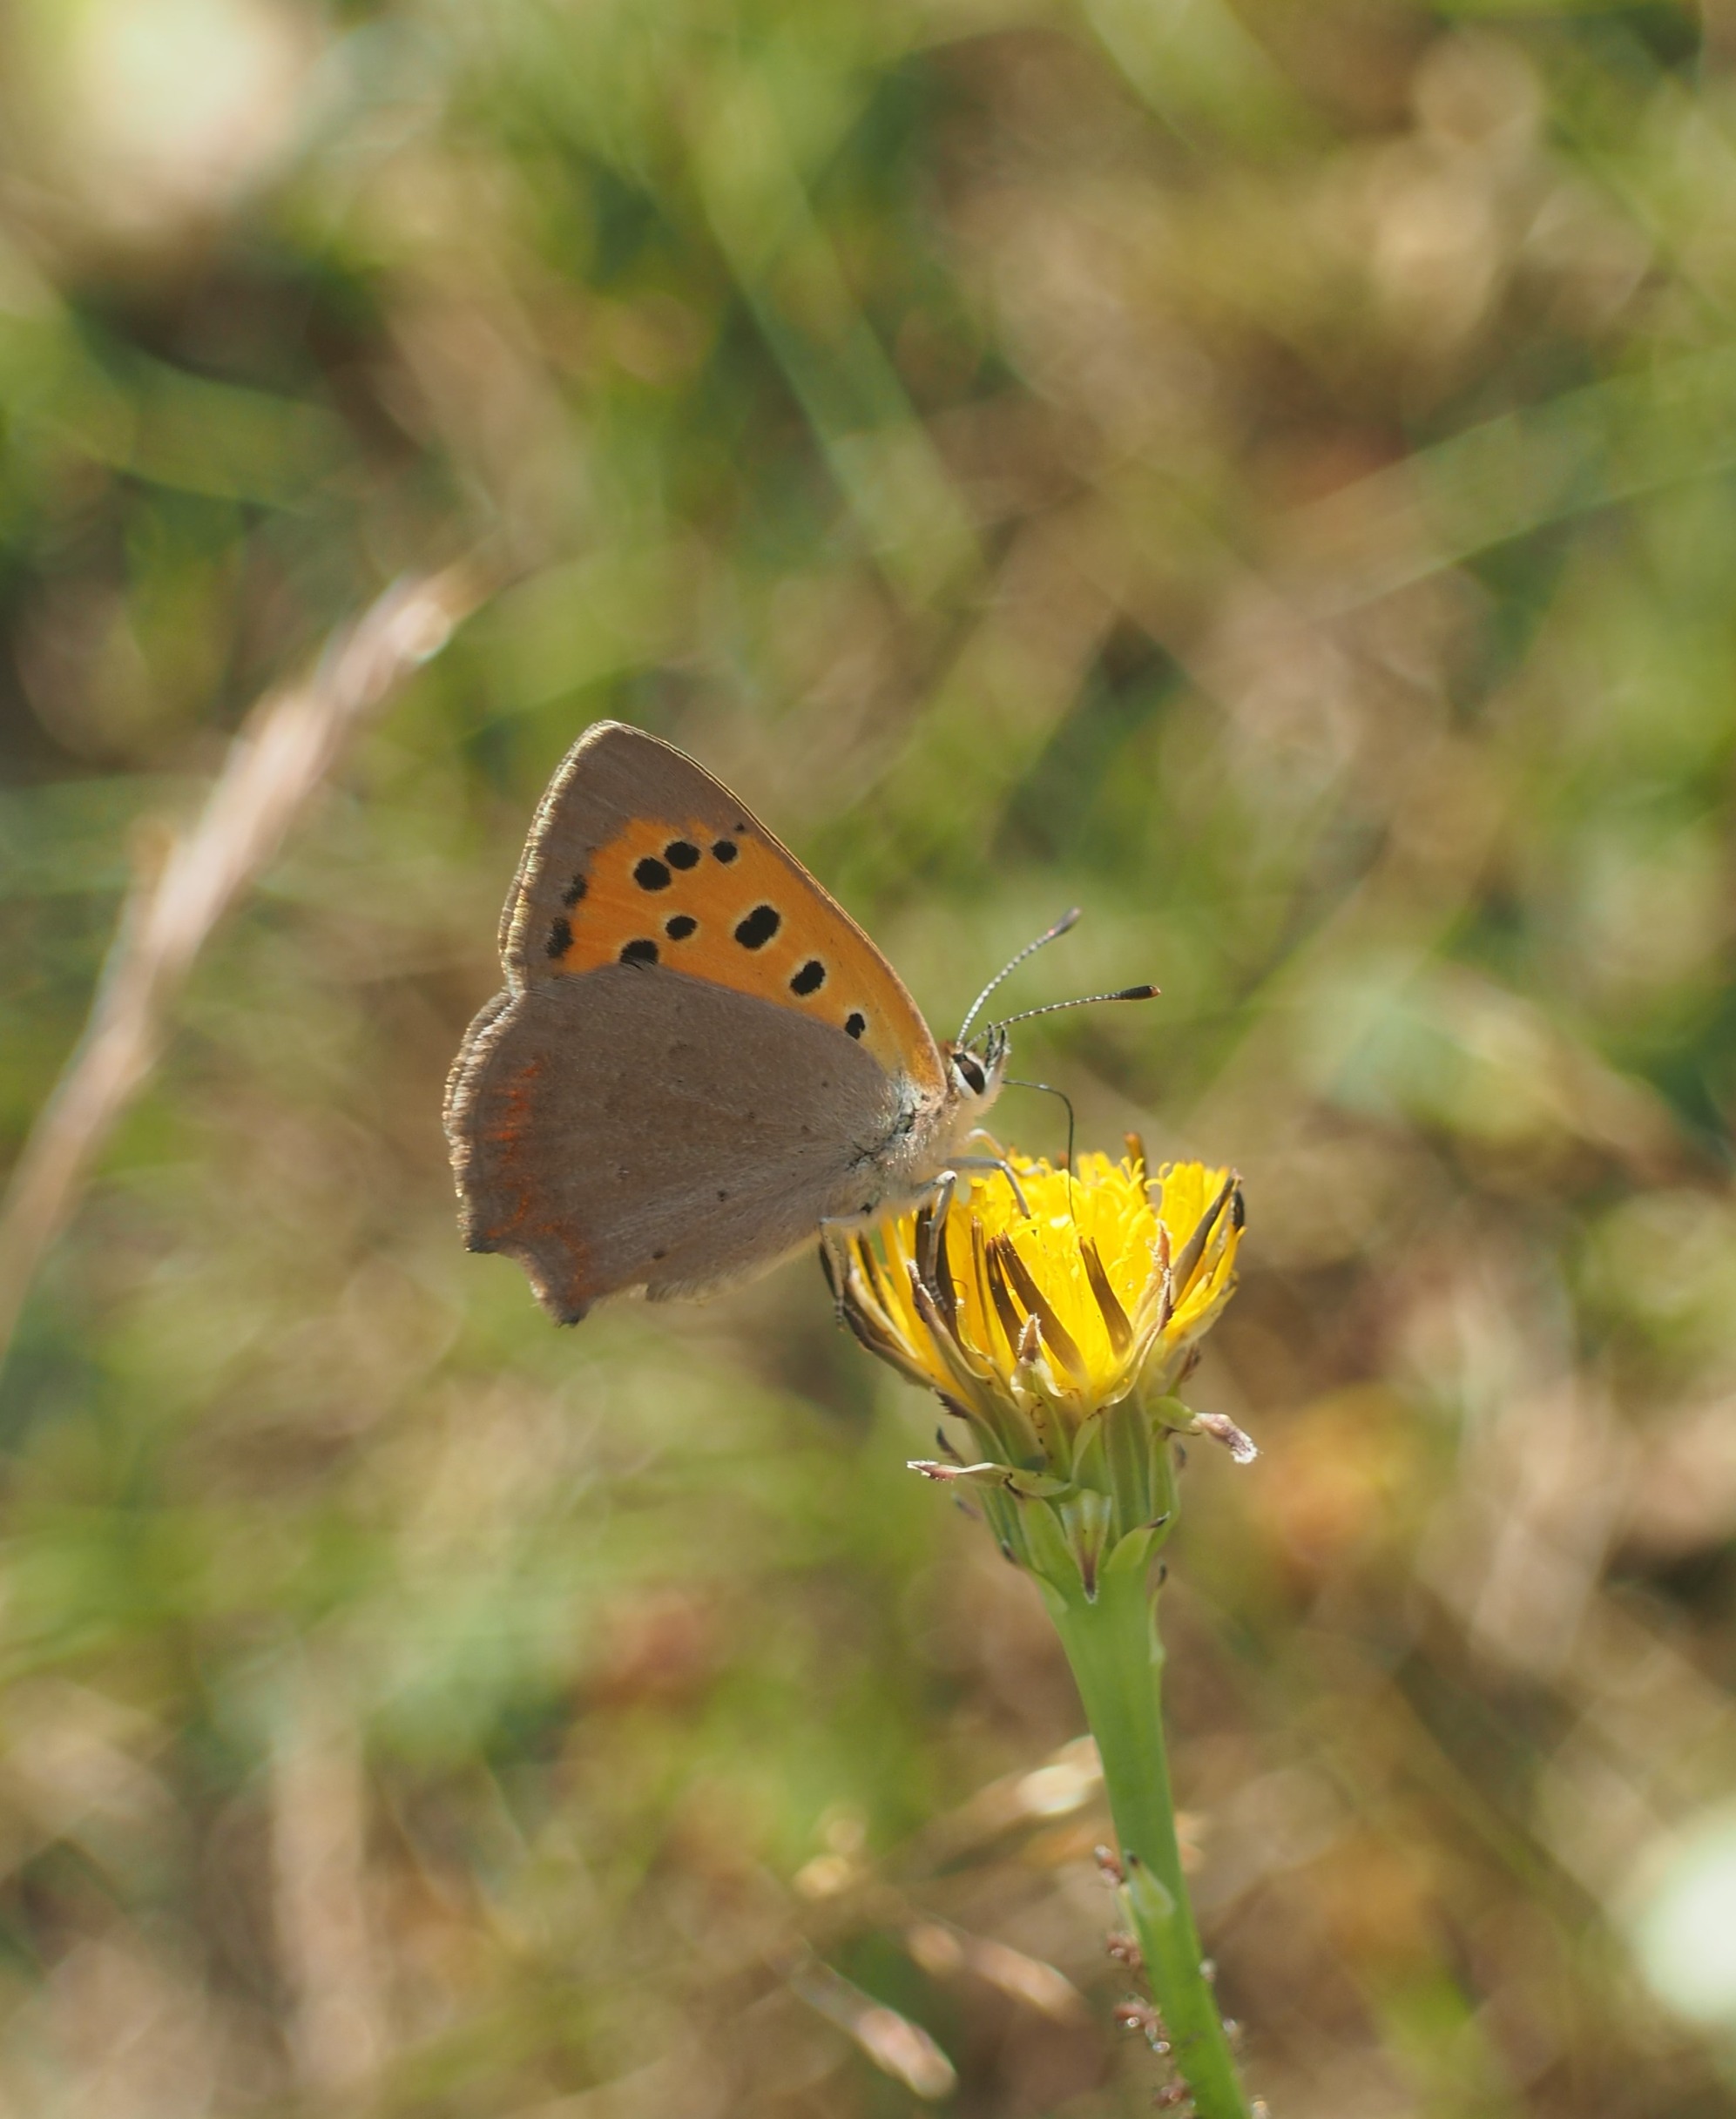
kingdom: Animalia
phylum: Arthropoda
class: Insecta
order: Lepidoptera
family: Lycaenidae
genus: Lycaena
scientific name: Lycaena phlaeas
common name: Lille ildfugl
